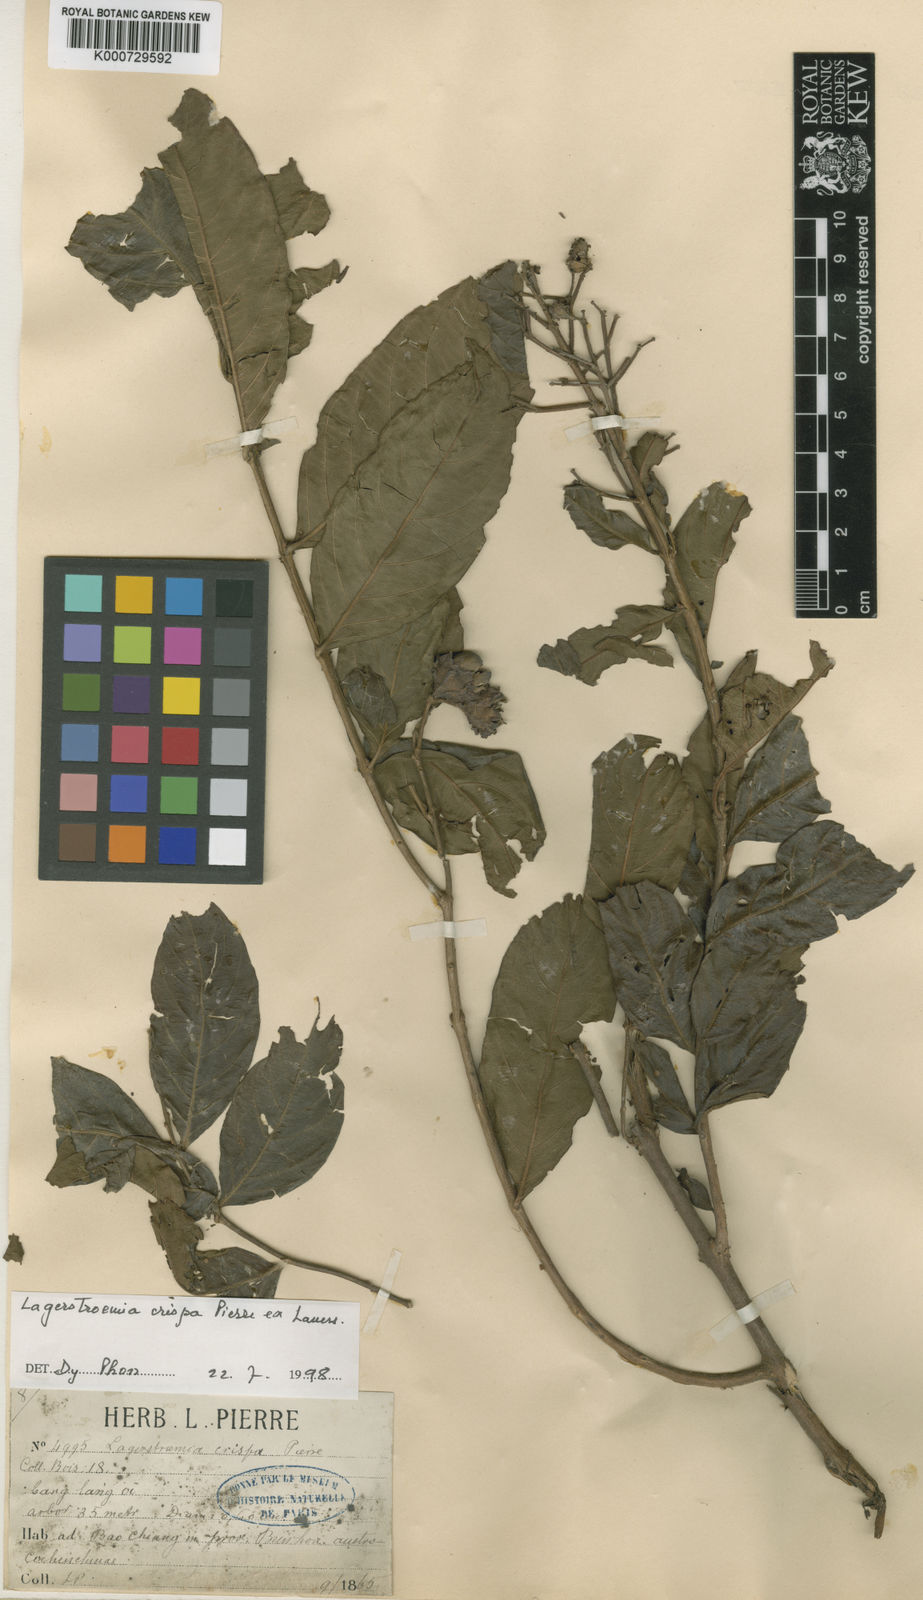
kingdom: Plantae
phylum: Tracheophyta
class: Magnoliopsida
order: Myrtales
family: Lythraceae
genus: Lagerstroemia
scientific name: Lagerstroemia
